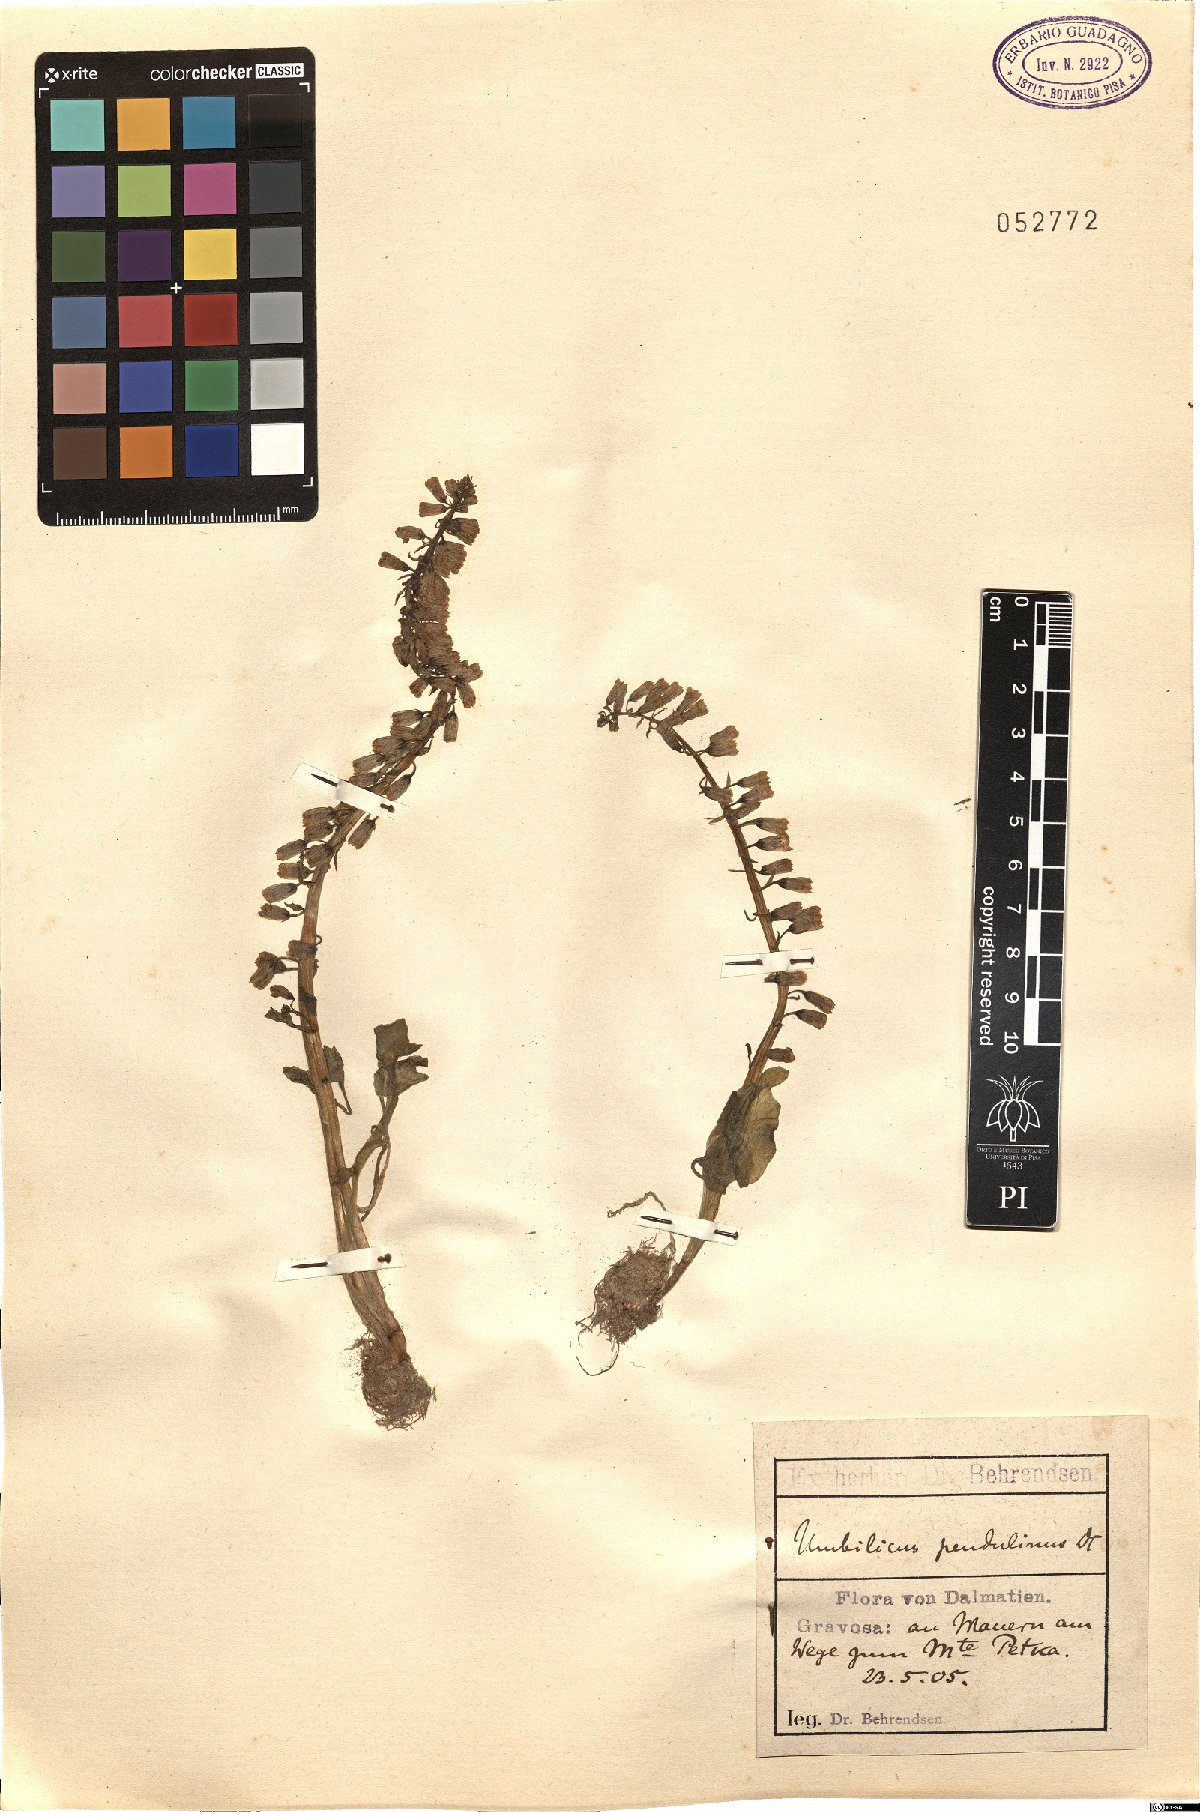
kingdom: Plantae
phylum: Tracheophyta
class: Magnoliopsida
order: Saxifragales
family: Crassulaceae
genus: Umbilicus
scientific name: Umbilicus rupestris
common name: Navelwort
